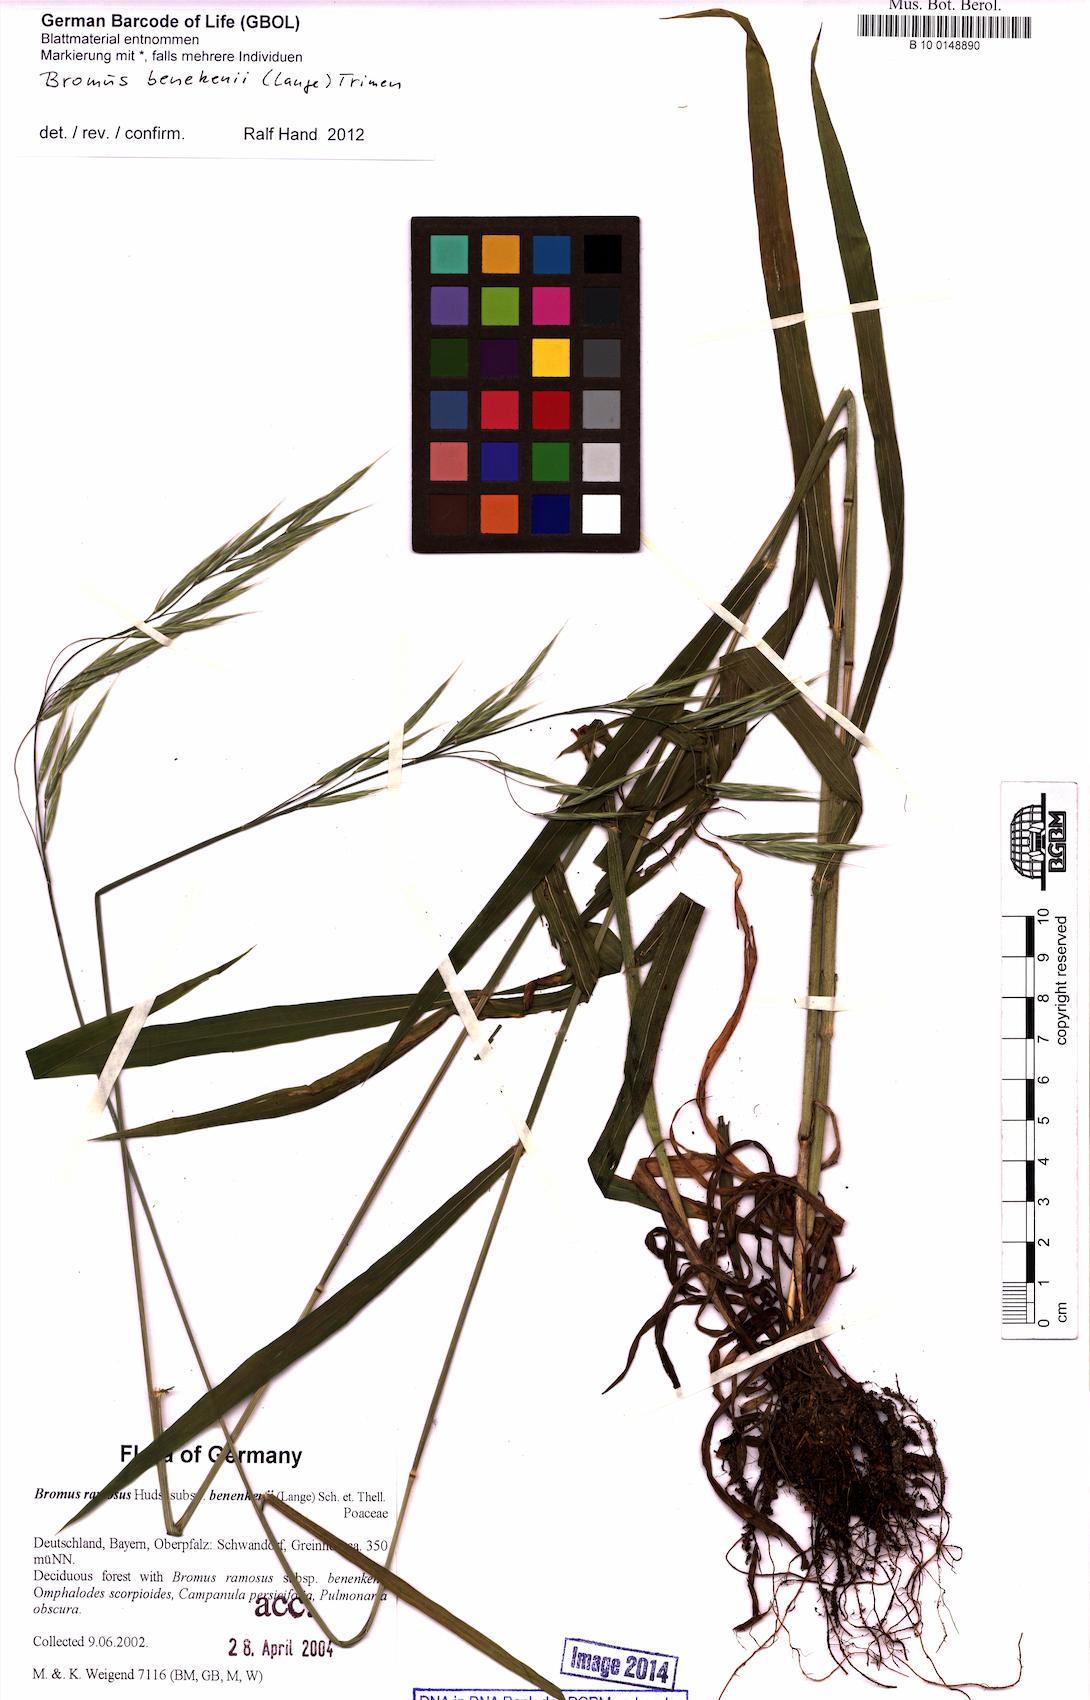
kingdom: Plantae
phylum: Tracheophyta
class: Liliopsida
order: Poales
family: Poaceae
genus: Bromus
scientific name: Bromus benekenii
